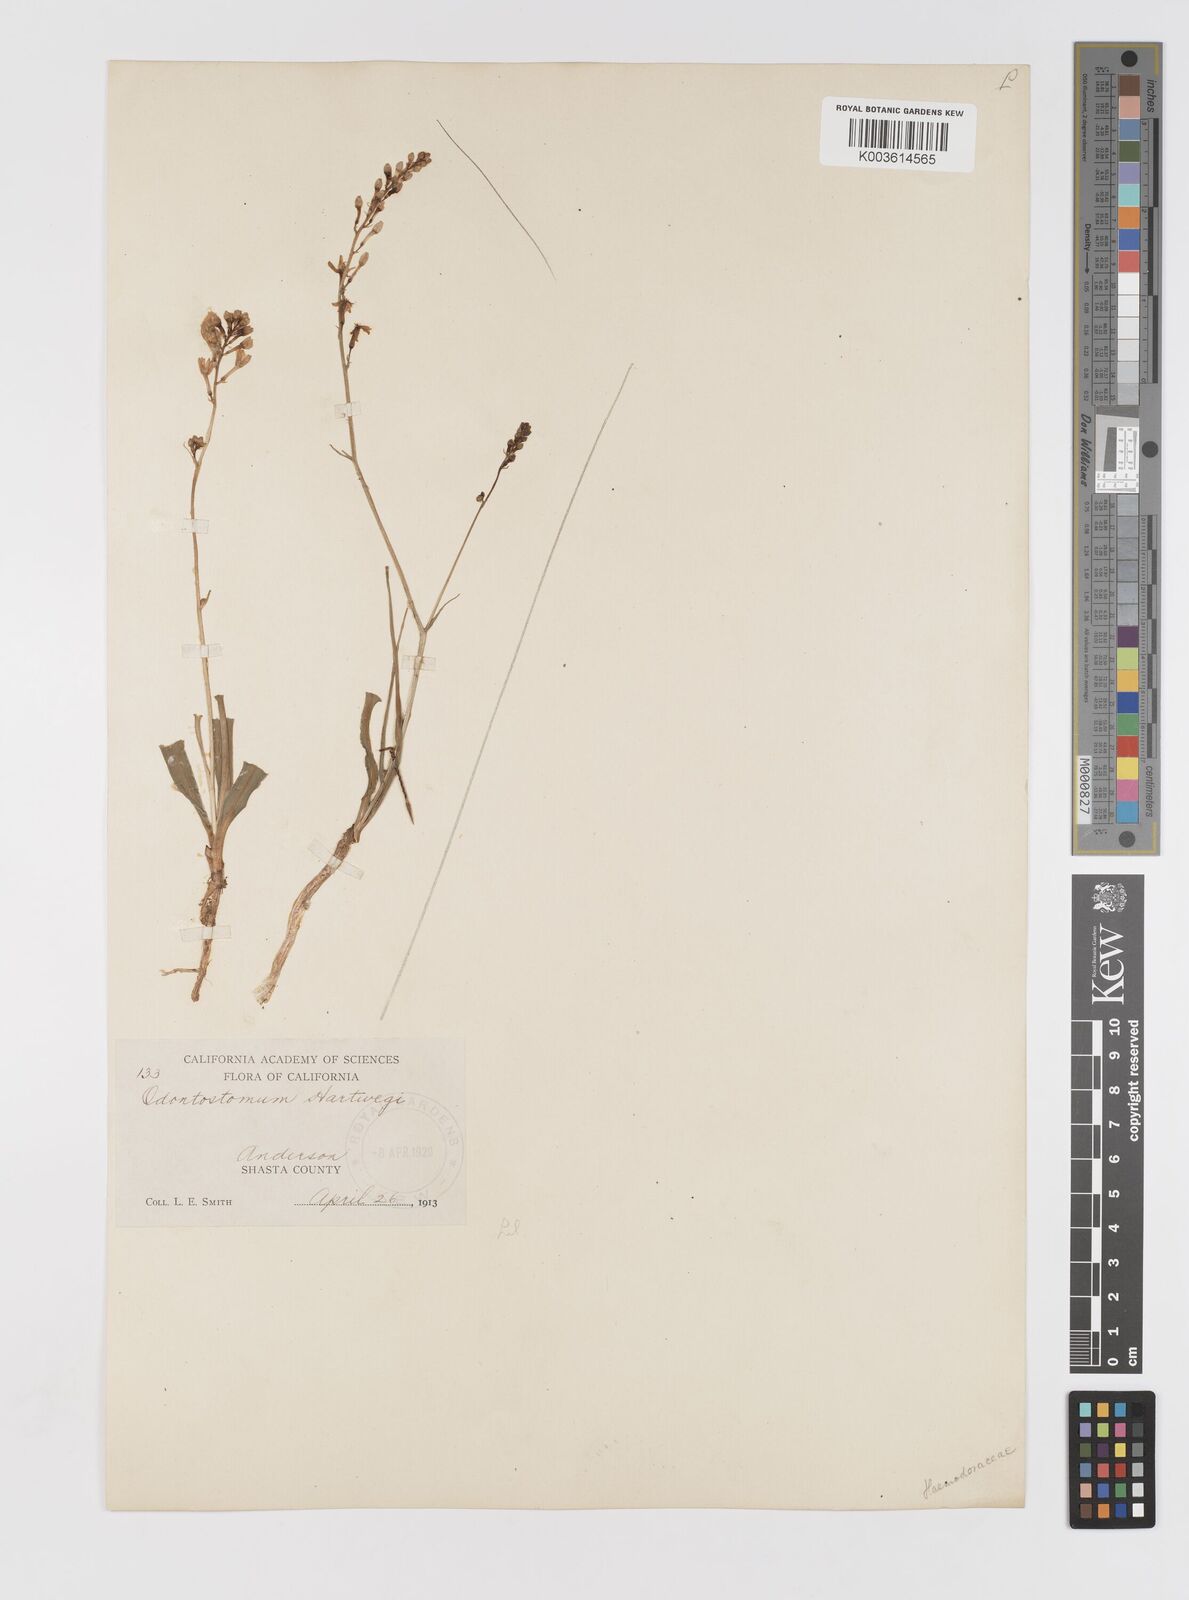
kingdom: Plantae
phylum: Tracheophyta
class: Liliopsida
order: Asparagales
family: Tecophilaeaceae
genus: Odontostomum
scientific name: Odontostomum hartwegii
